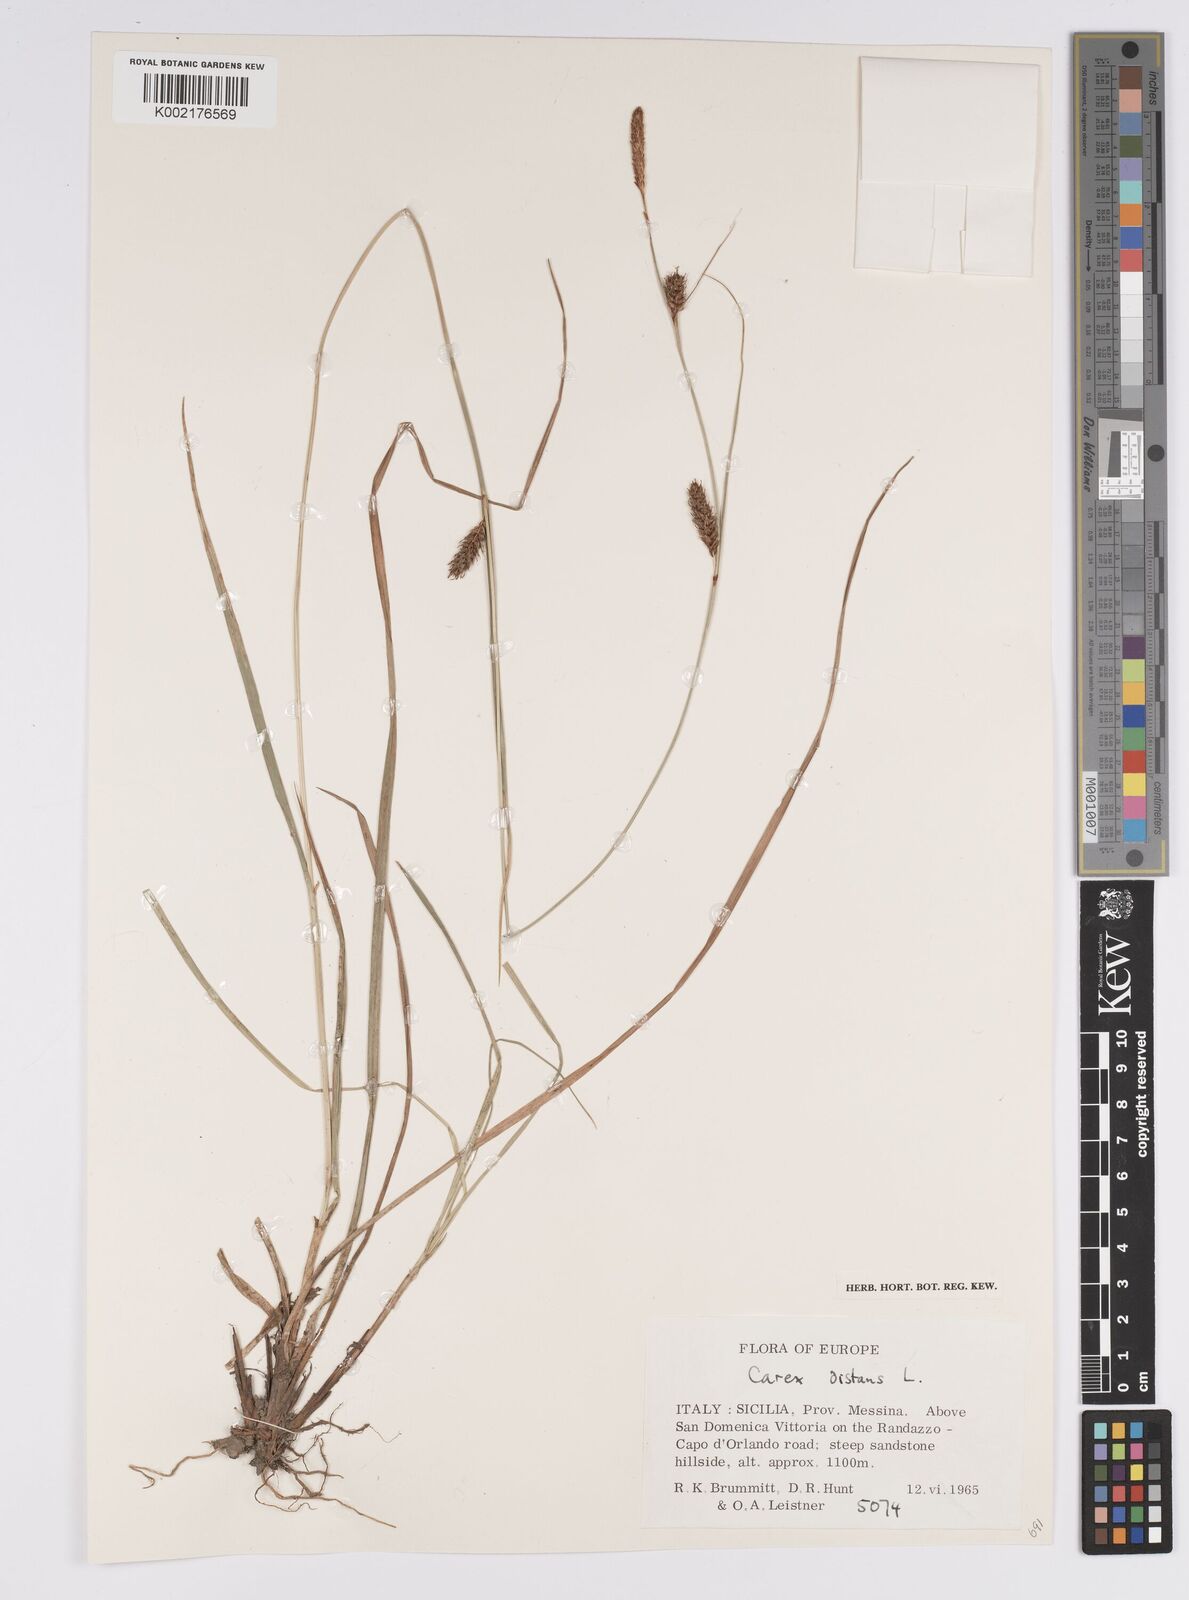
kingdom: Plantae
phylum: Tracheophyta
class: Liliopsida
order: Poales
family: Cyperaceae
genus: Carex
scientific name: Carex distans
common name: Distant sedge
